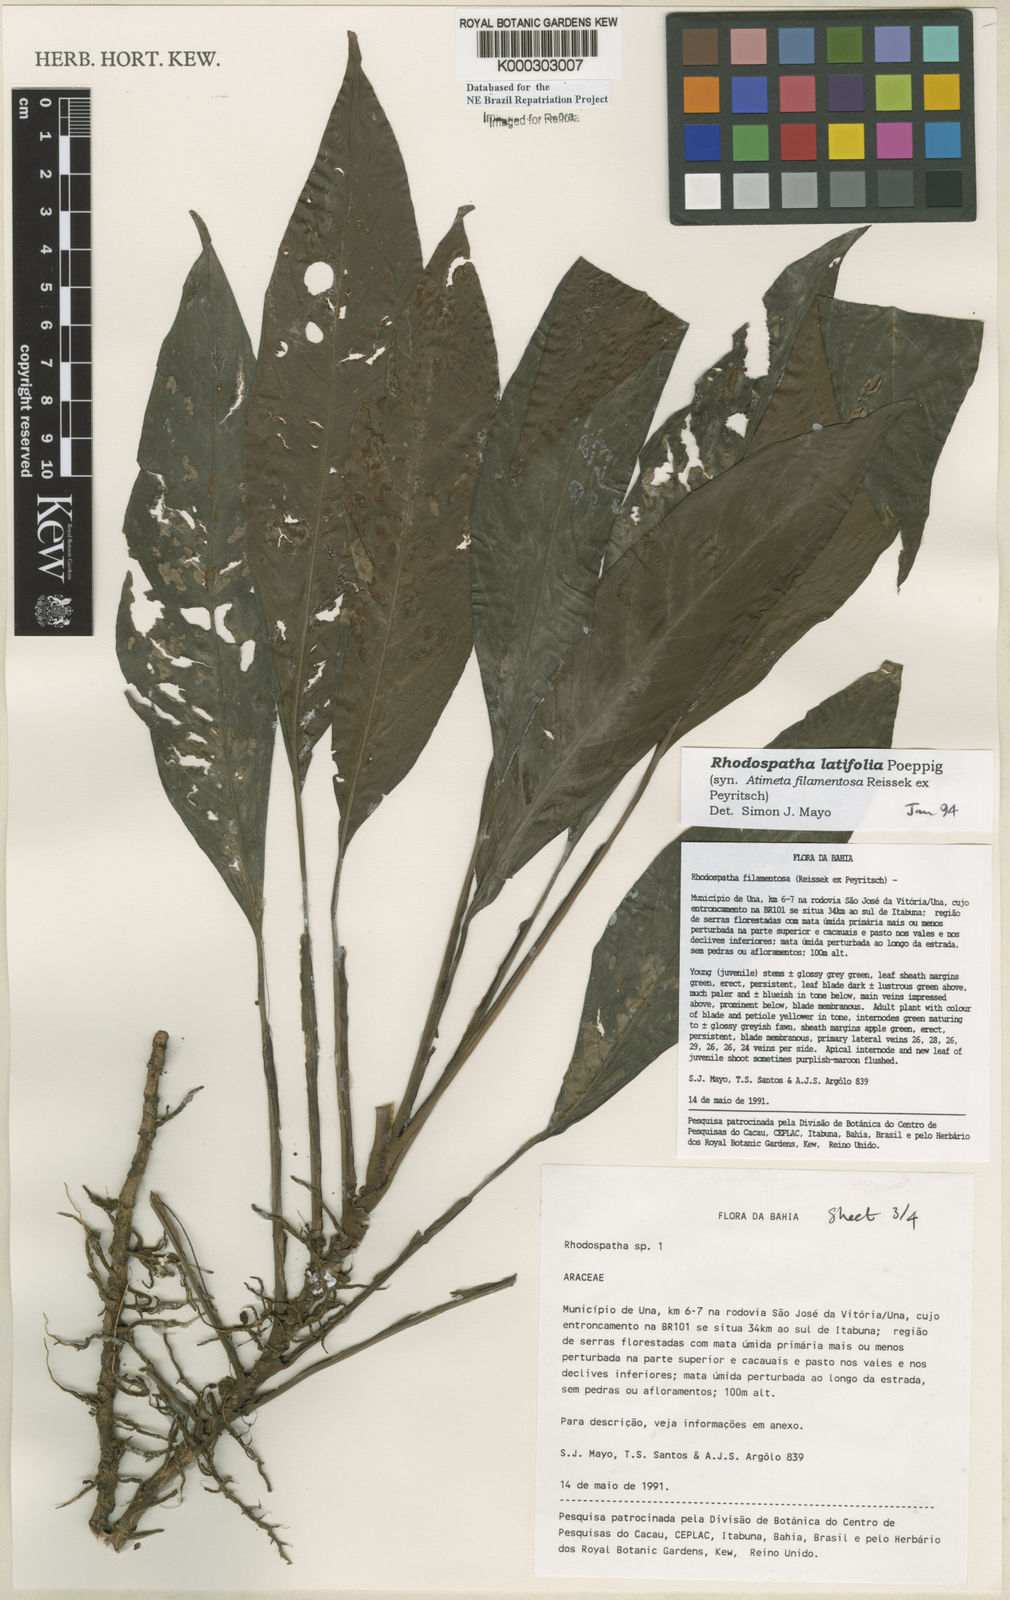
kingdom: Plantae
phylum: Tracheophyta
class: Liliopsida
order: Alismatales
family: Araceae
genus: Rhodospatha
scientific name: Rhodospatha latifolia
